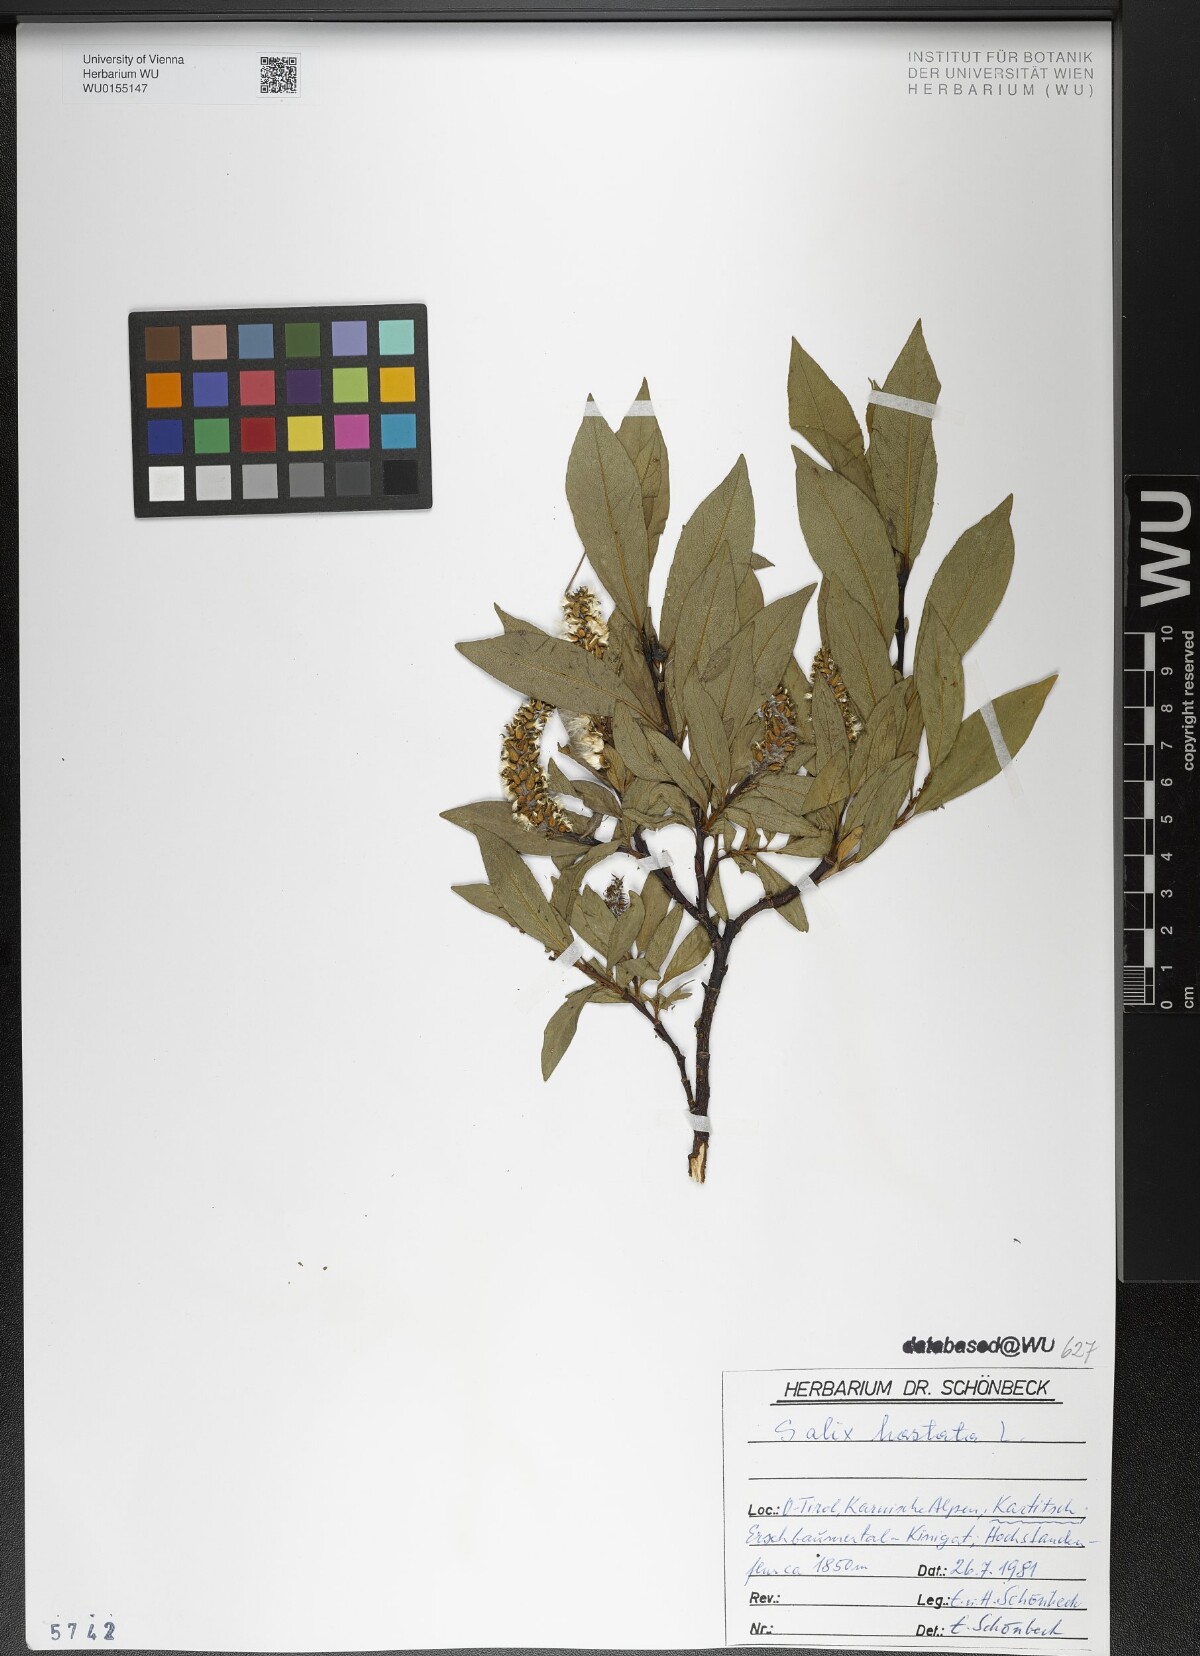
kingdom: Plantae
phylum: Tracheophyta
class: Magnoliopsida
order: Malpighiales
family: Salicaceae
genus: Salix
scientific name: Salix hastata
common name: Halberd willow
